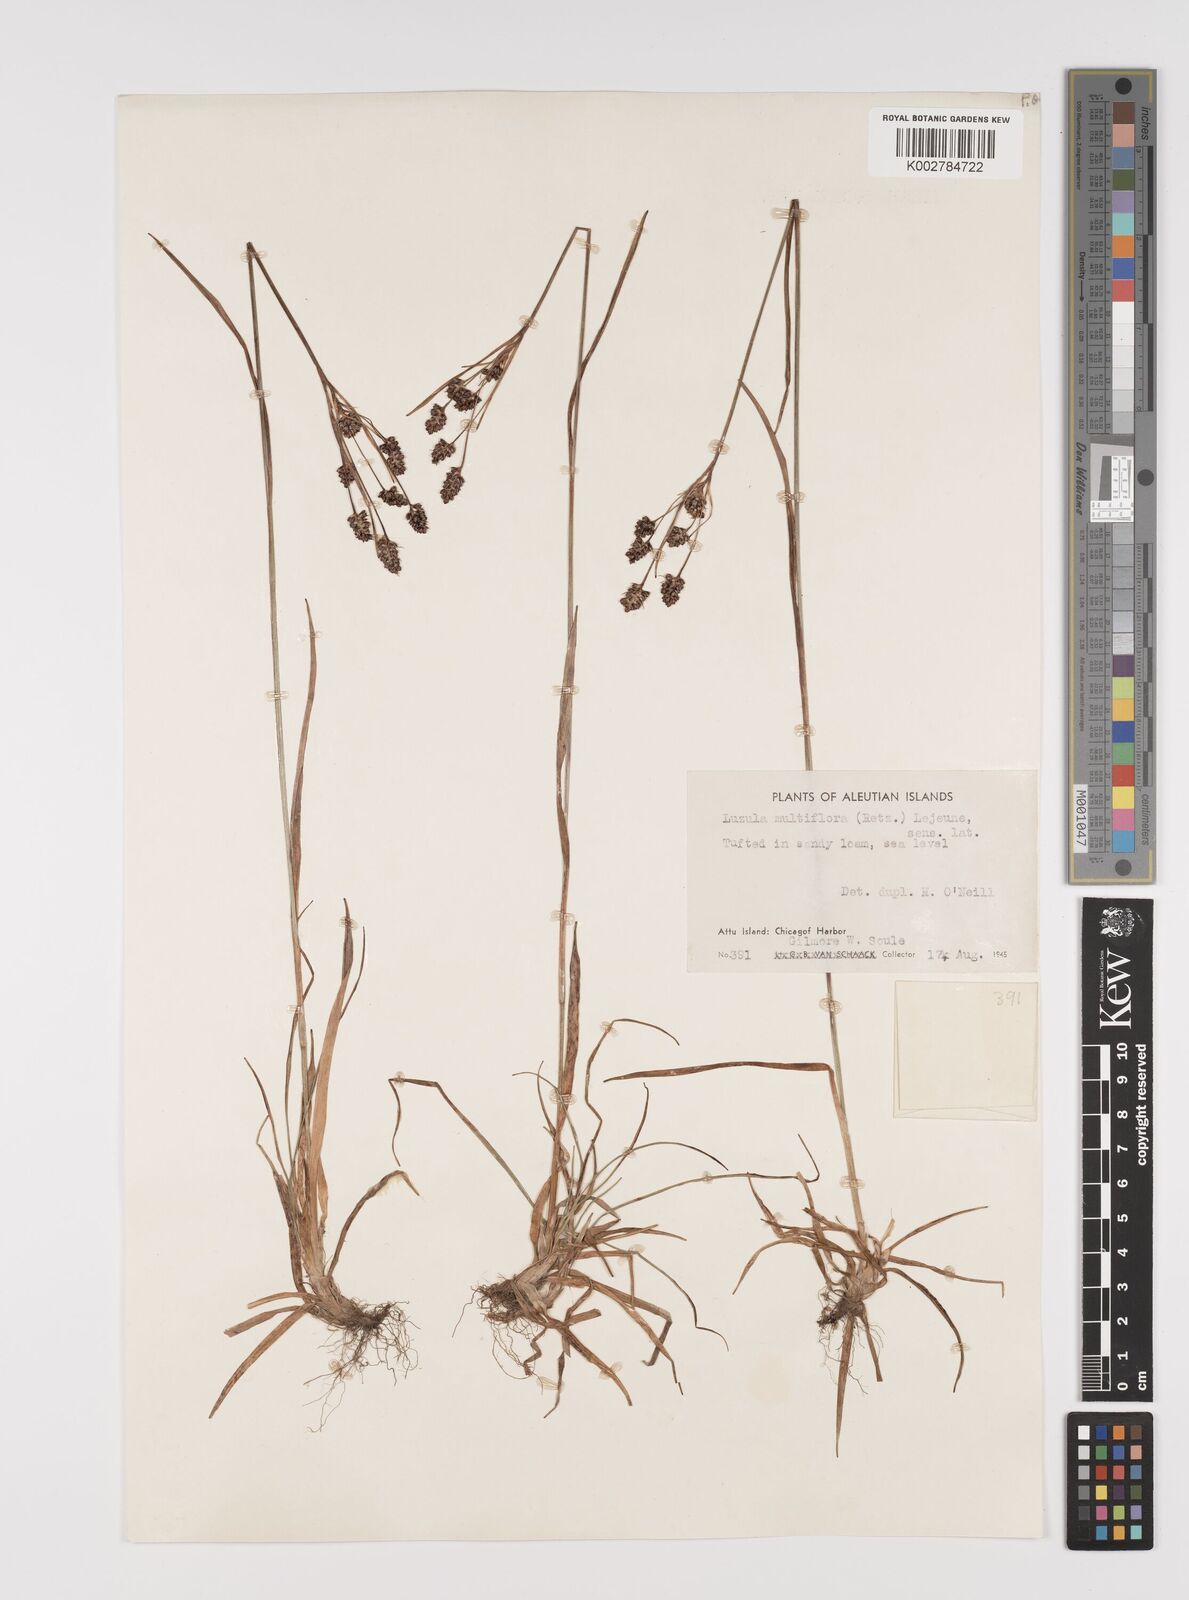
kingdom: Plantae
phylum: Tracheophyta
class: Liliopsida
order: Poales
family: Juncaceae
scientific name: Juncaceae
